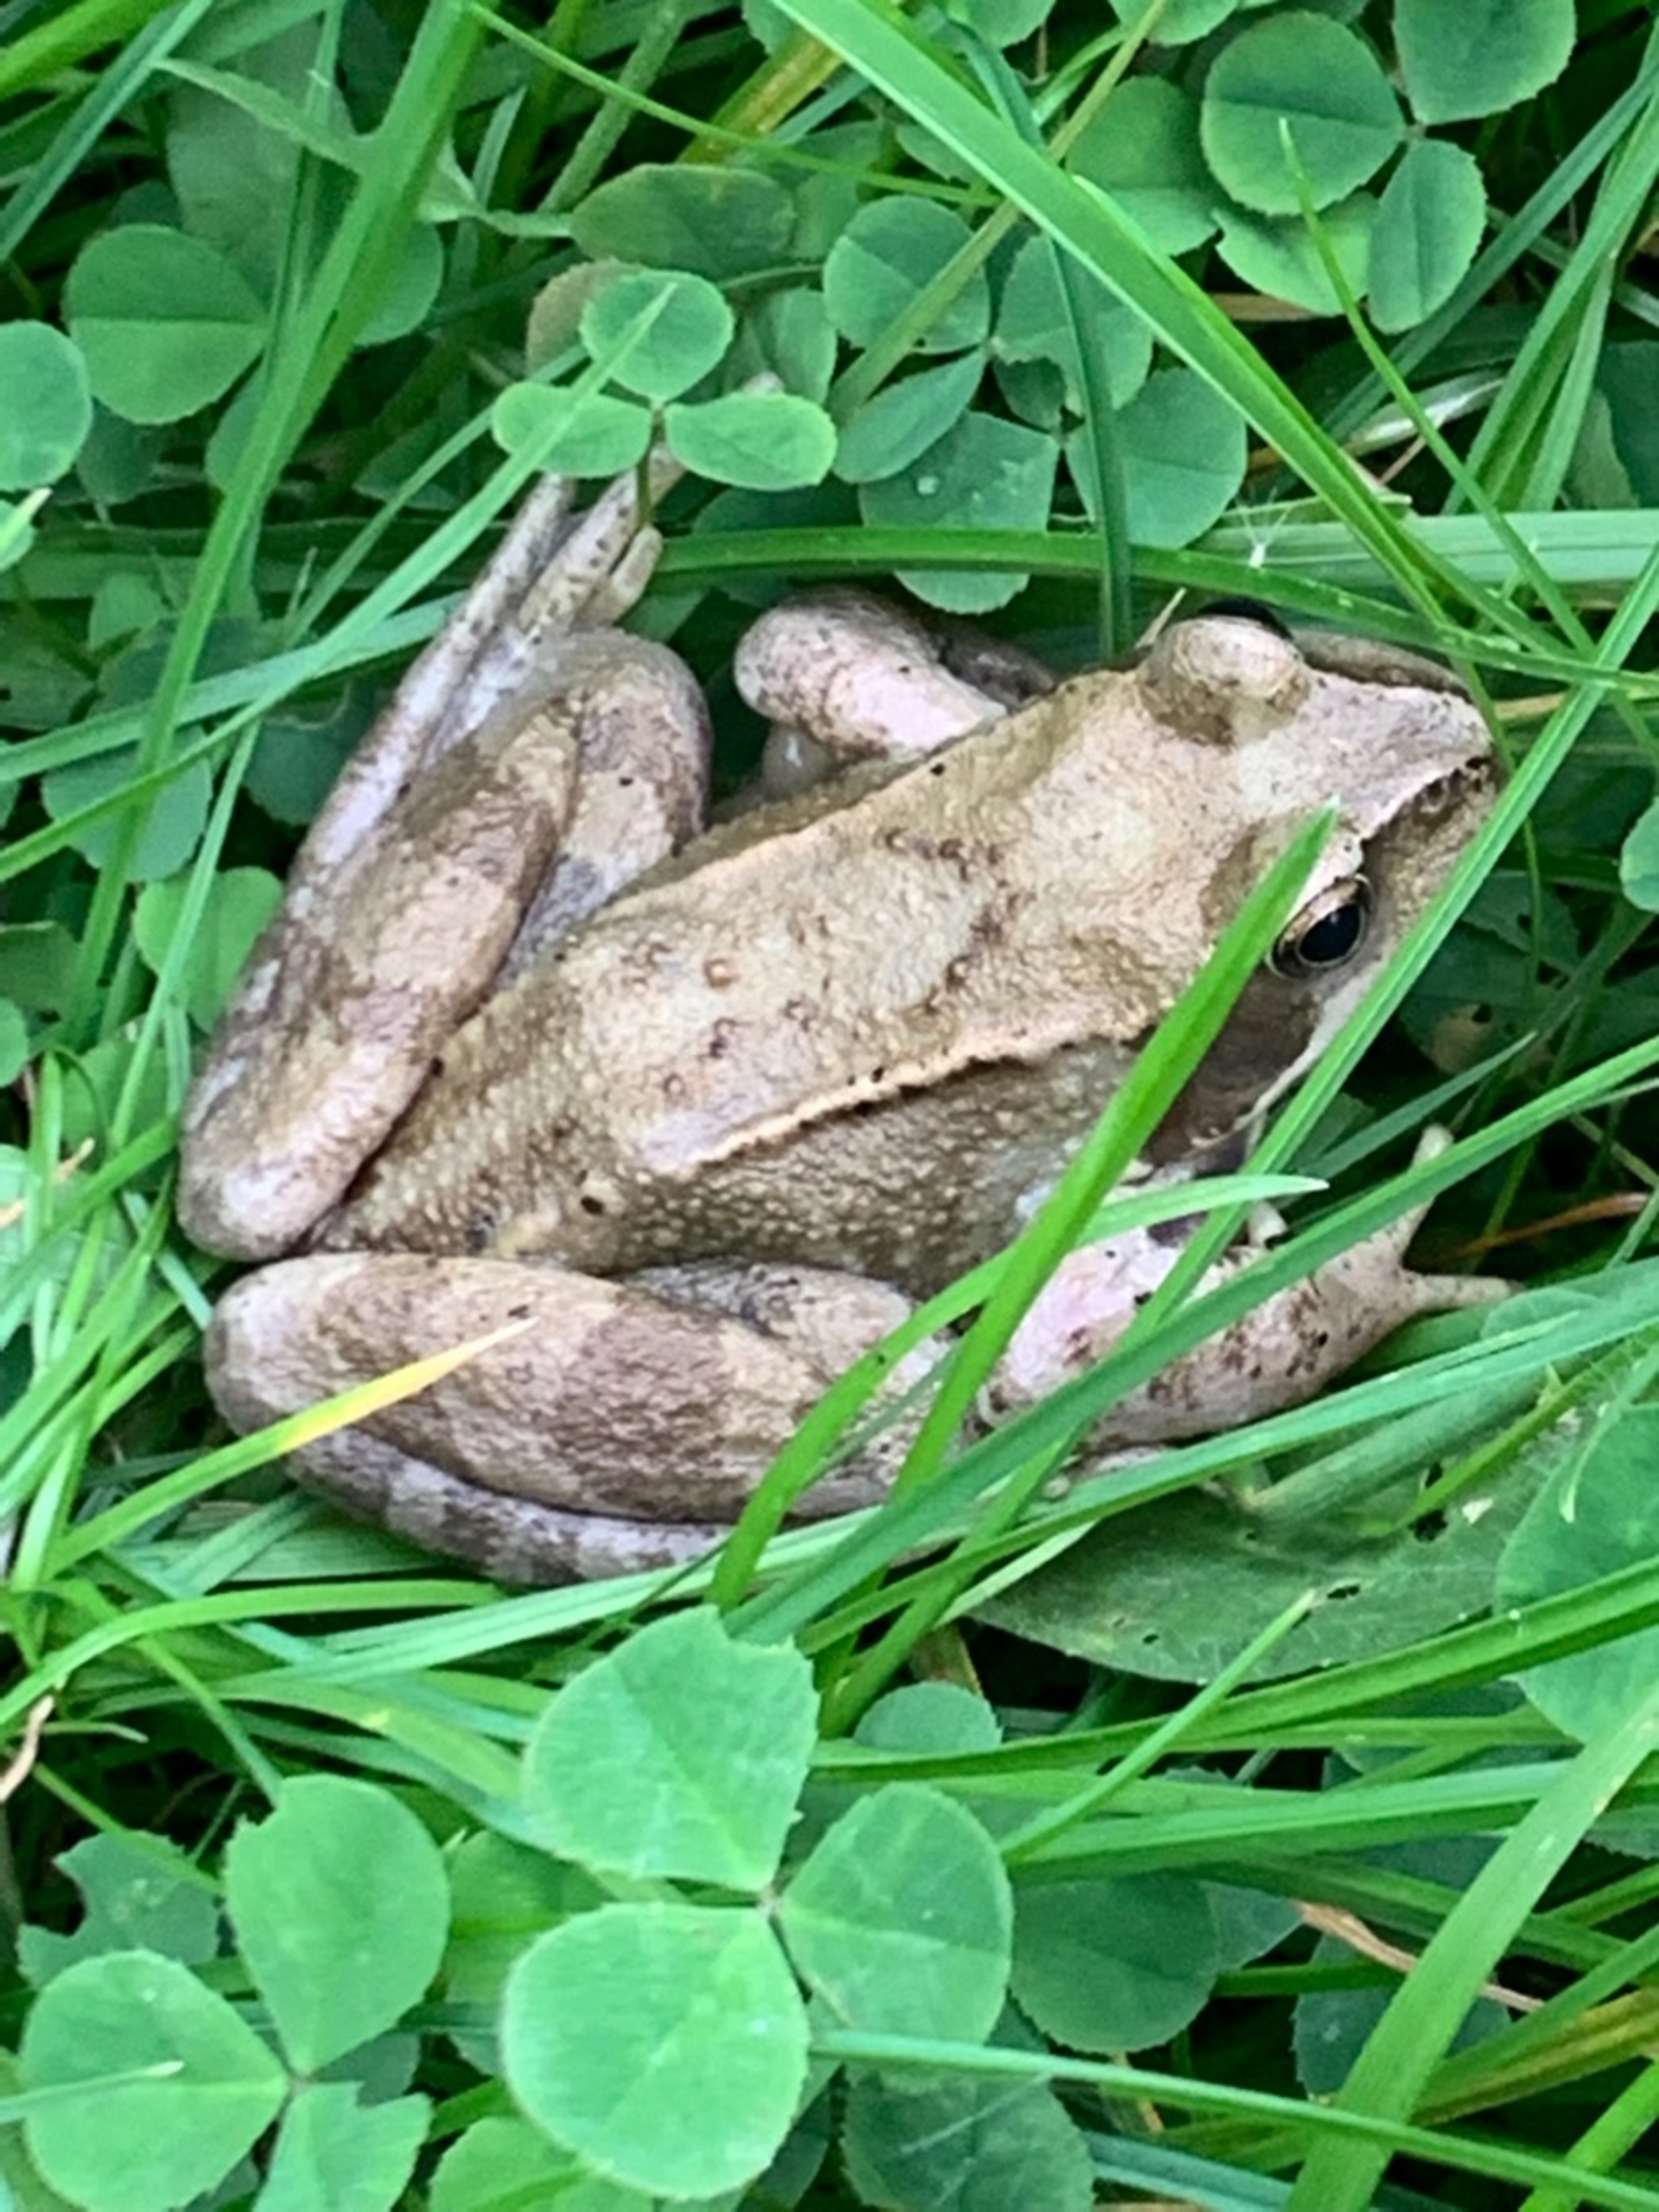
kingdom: Animalia
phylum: Chordata
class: Amphibia
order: Anura
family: Ranidae
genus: Rana
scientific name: Rana temporaria
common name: Butsnudet frø
